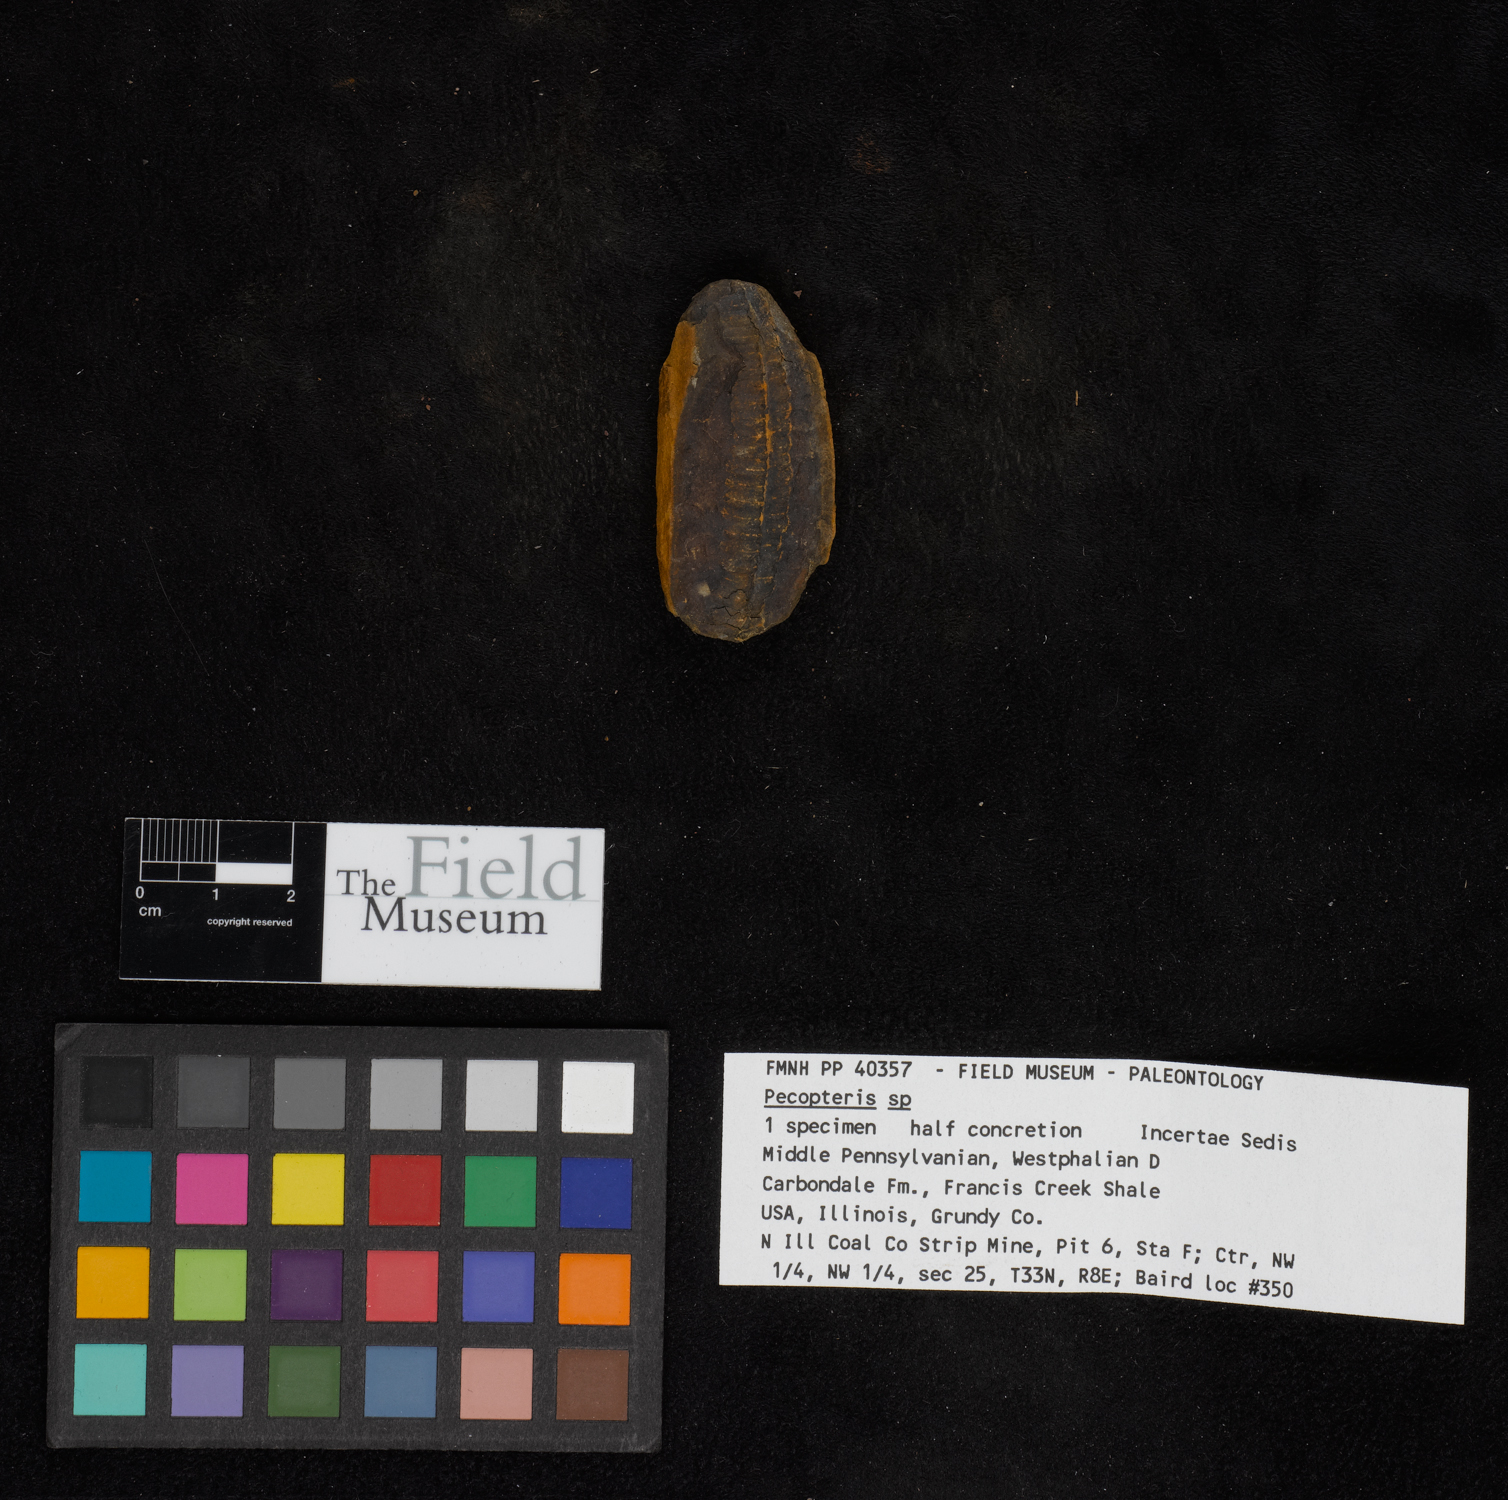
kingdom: Plantae
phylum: Tracheophyta
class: Polypodiopsida
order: Marattiales
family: Asterothecaceae
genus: Pecopteris
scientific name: Pecopteris
